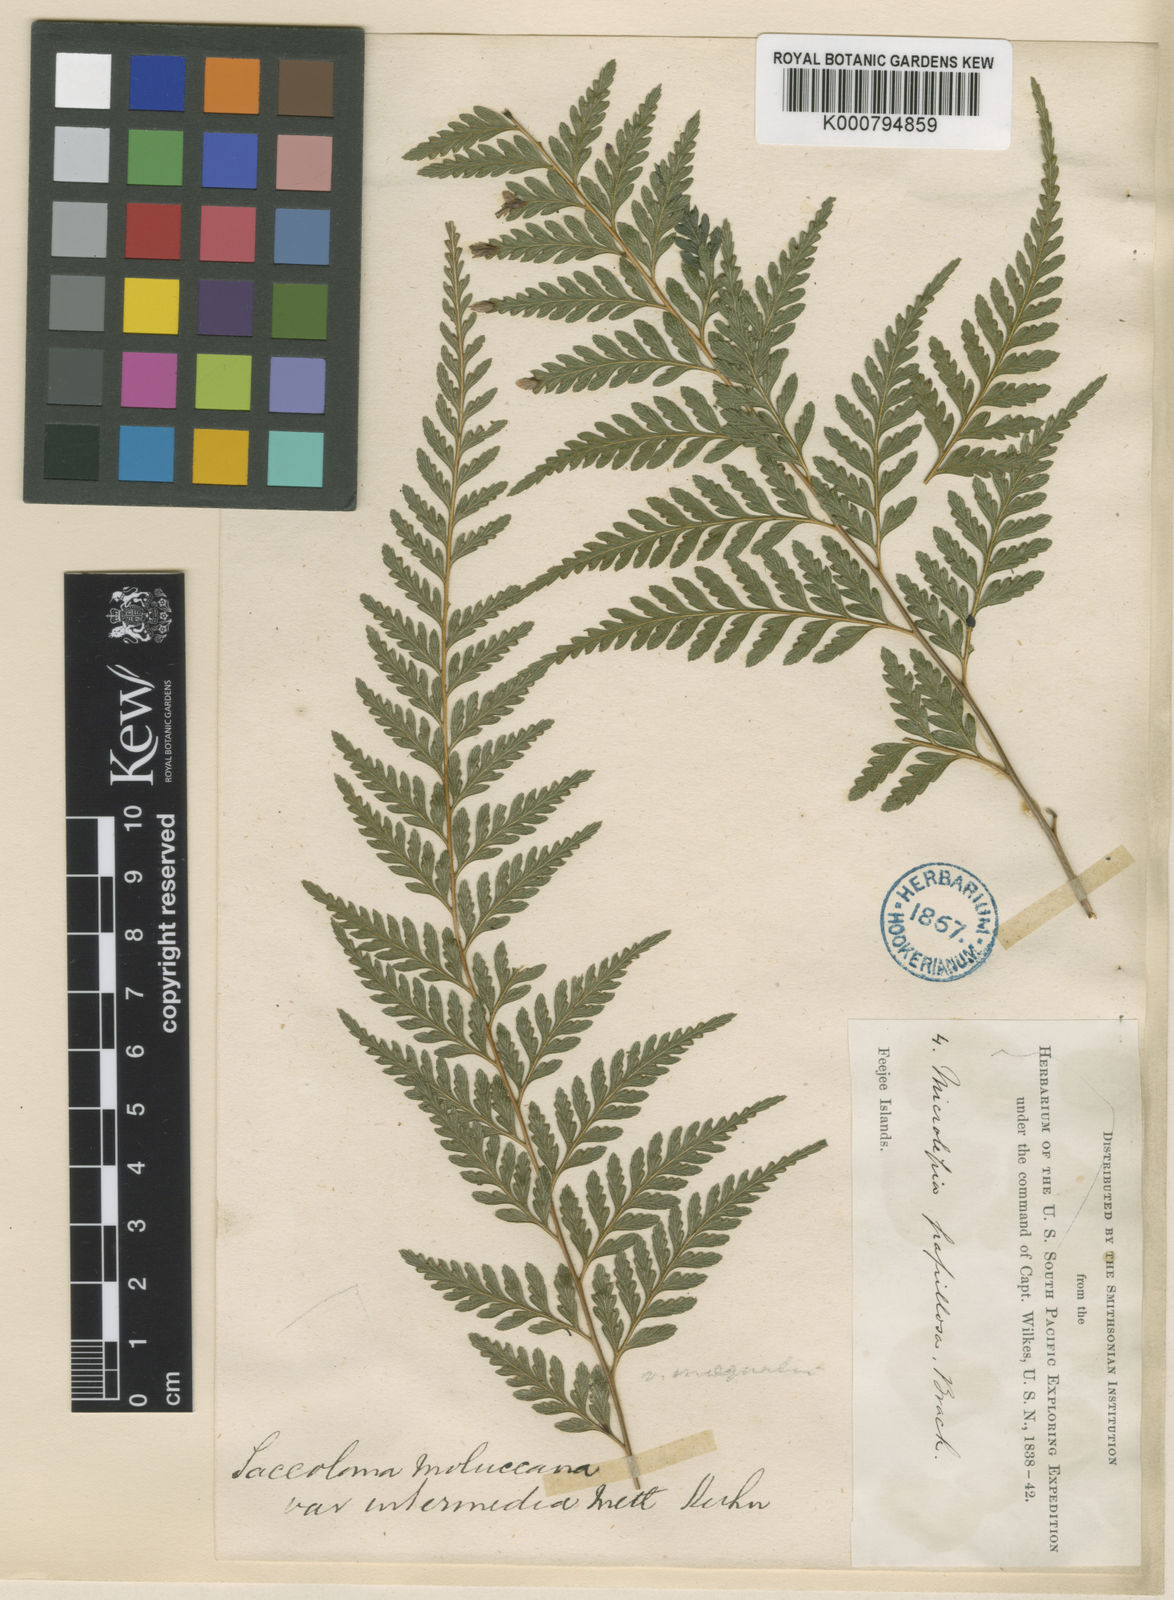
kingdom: Plantae
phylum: Tracheophyta
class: Polypodiopsida
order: Polypodiales
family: Saccolomataceae
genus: Orthiopteris
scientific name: Orthiopteris campylura
